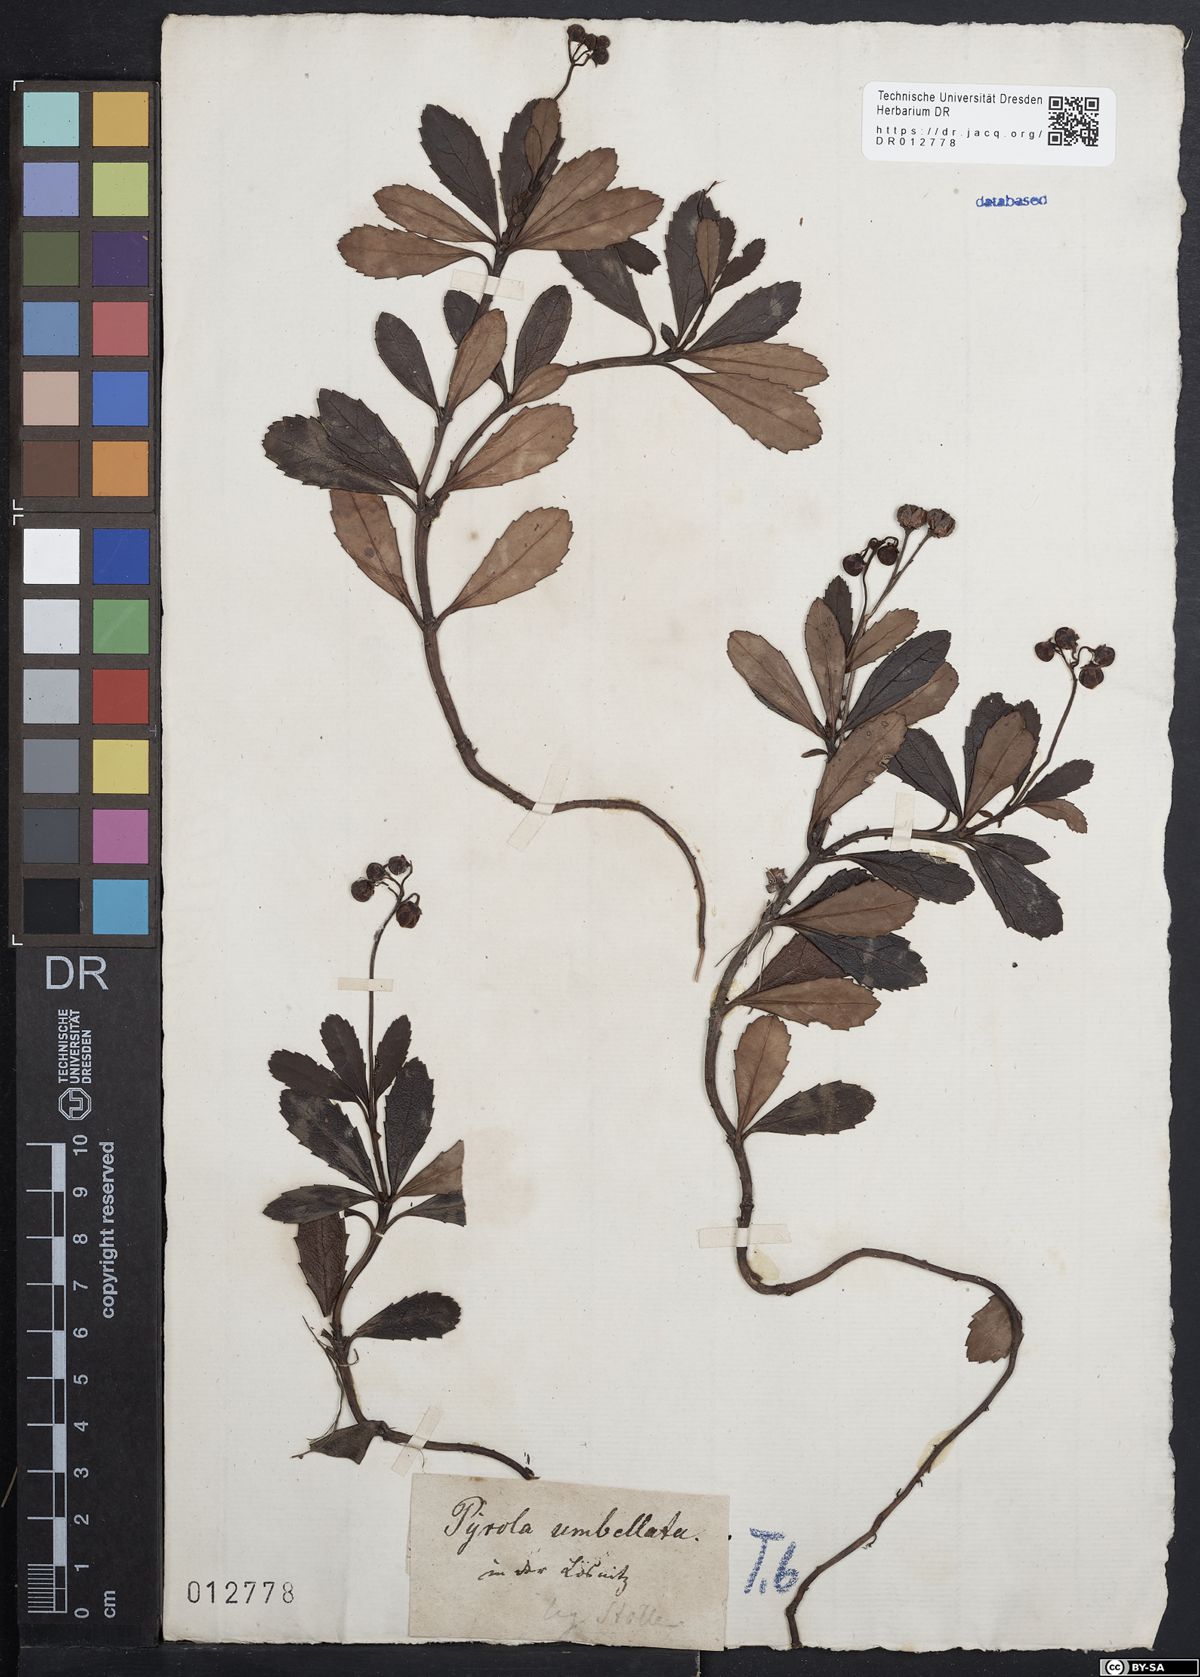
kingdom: Plantae
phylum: Tracheophyta
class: Magnoliopsida
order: Ericales
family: Ericaceae
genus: Chimaphila
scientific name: Chimaphila umbellata
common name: Pipsissewa
